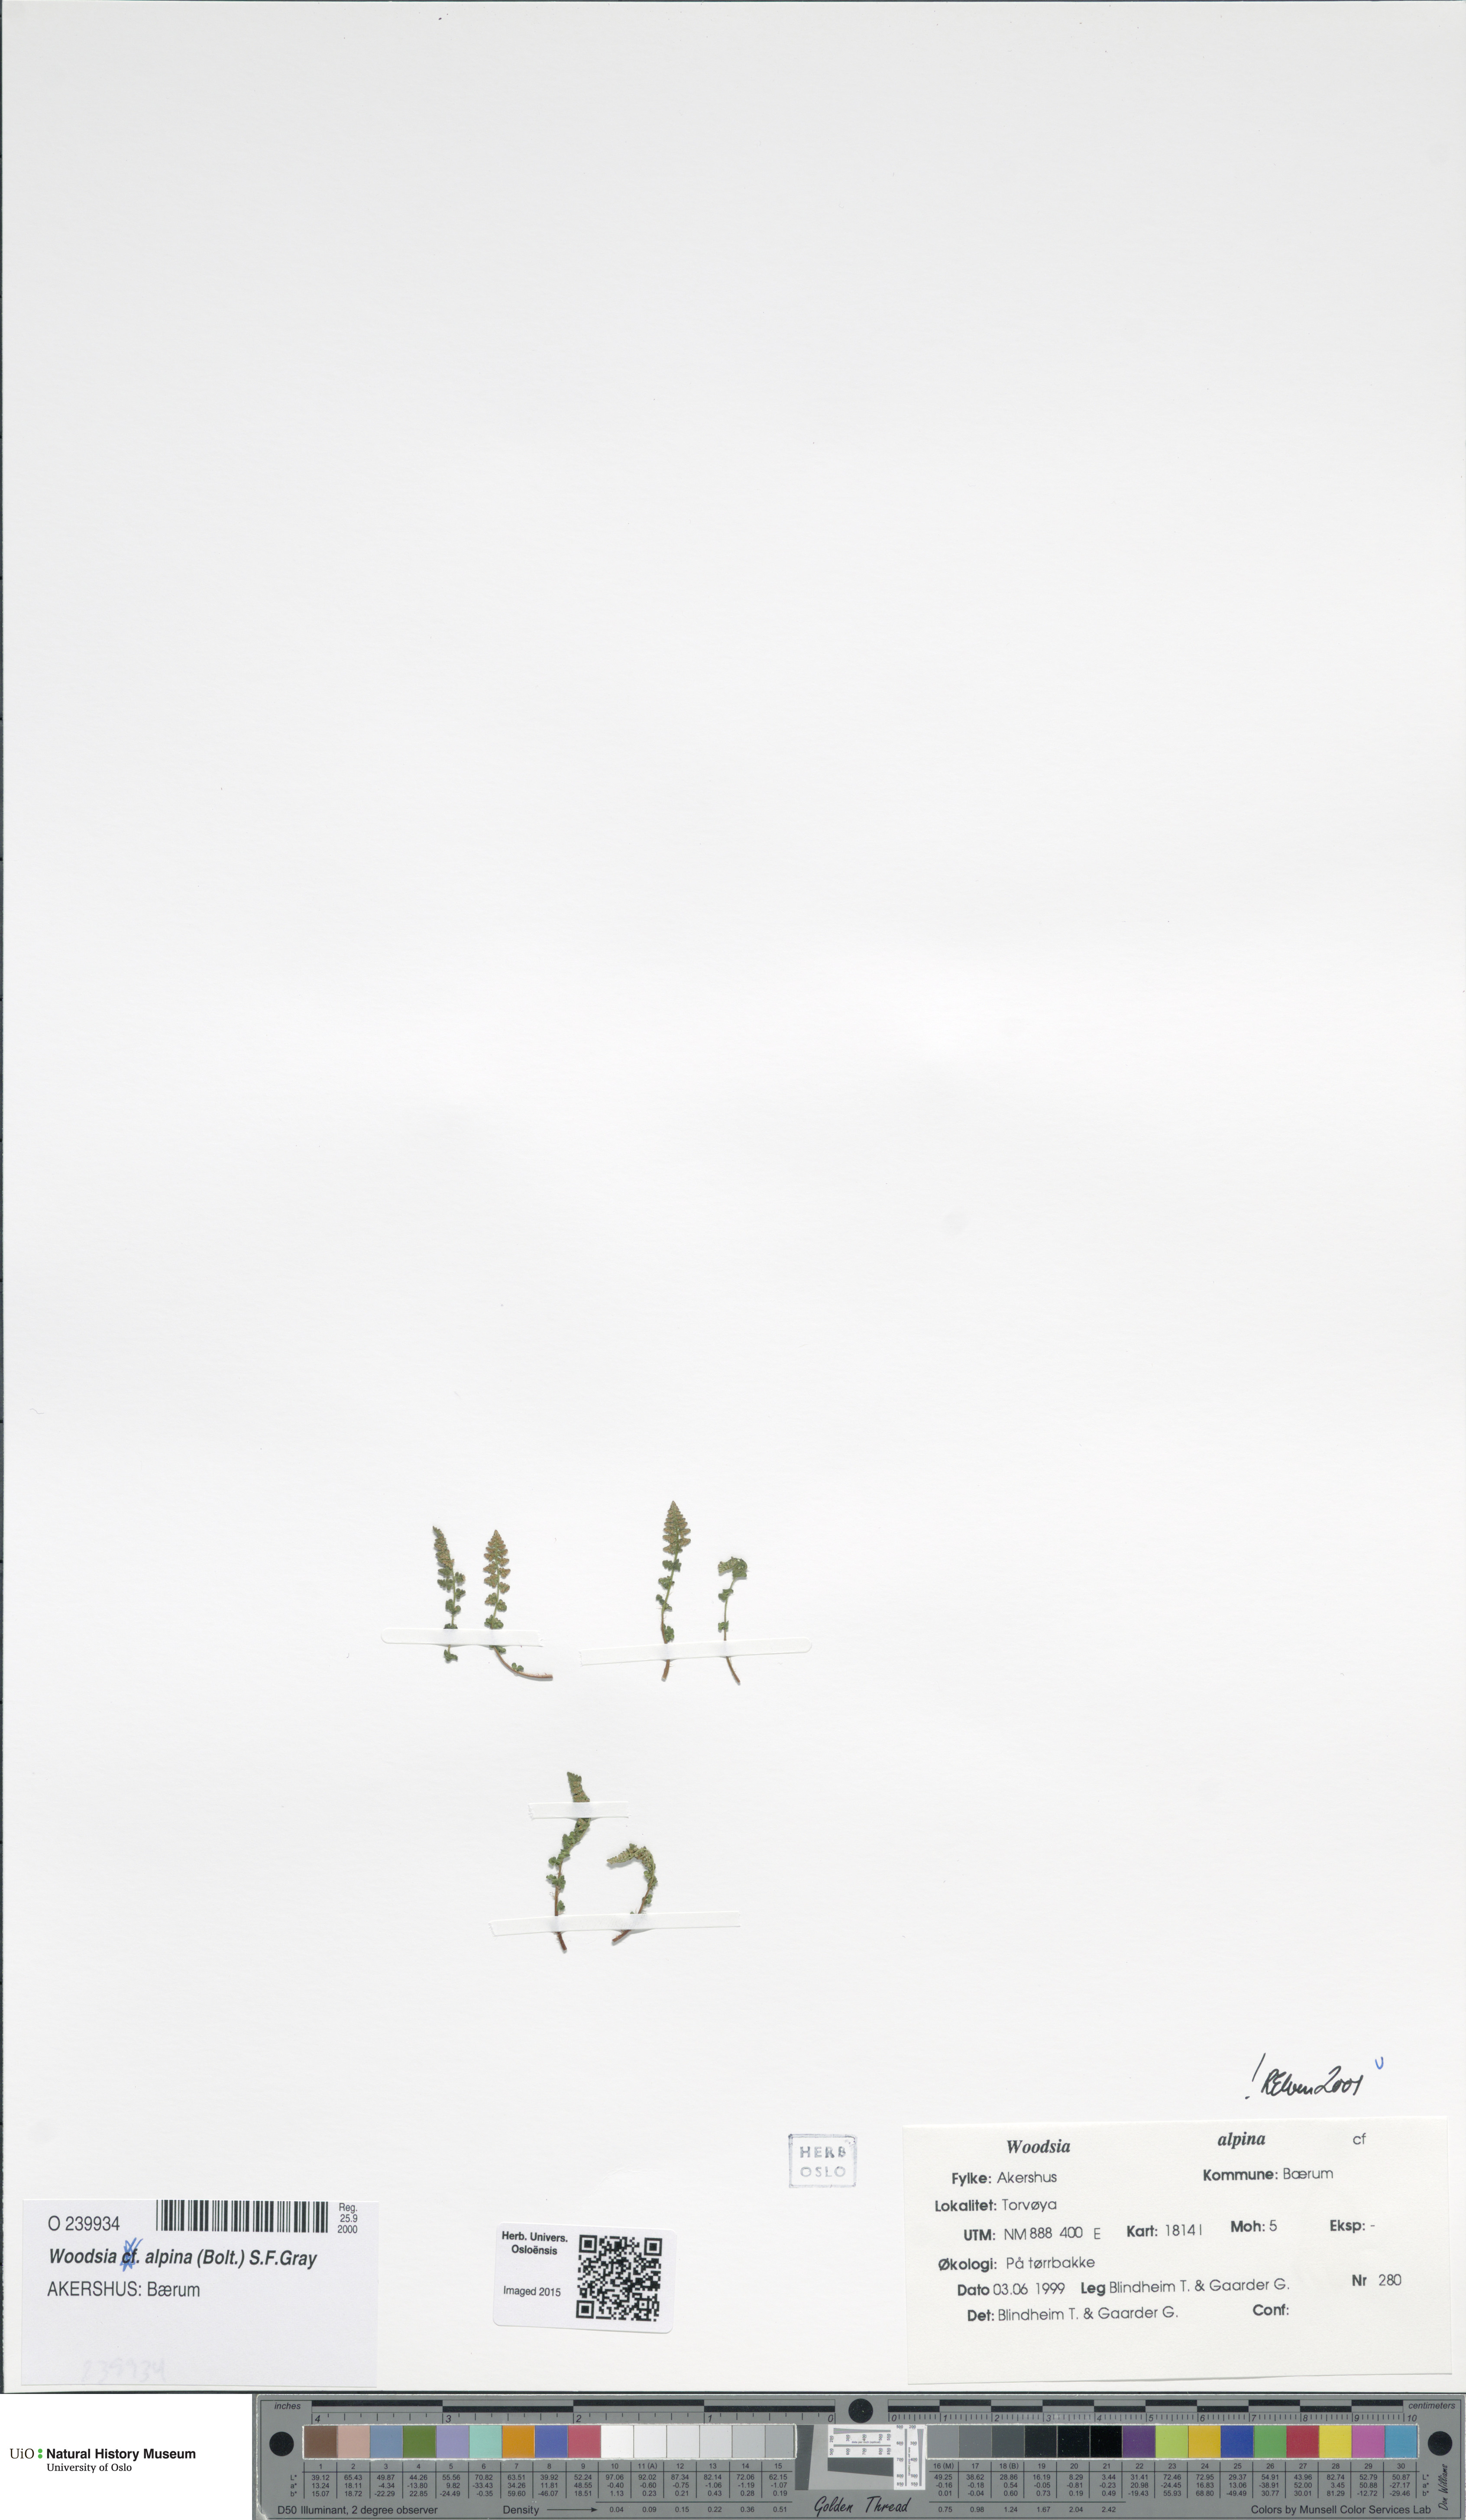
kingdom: Plantae
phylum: Tracheophyta
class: Polypodiopsida
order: Polypodiales
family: Woodsiaceae
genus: Woodsia
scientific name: Woodsia alpina
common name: Alpine woodsia
